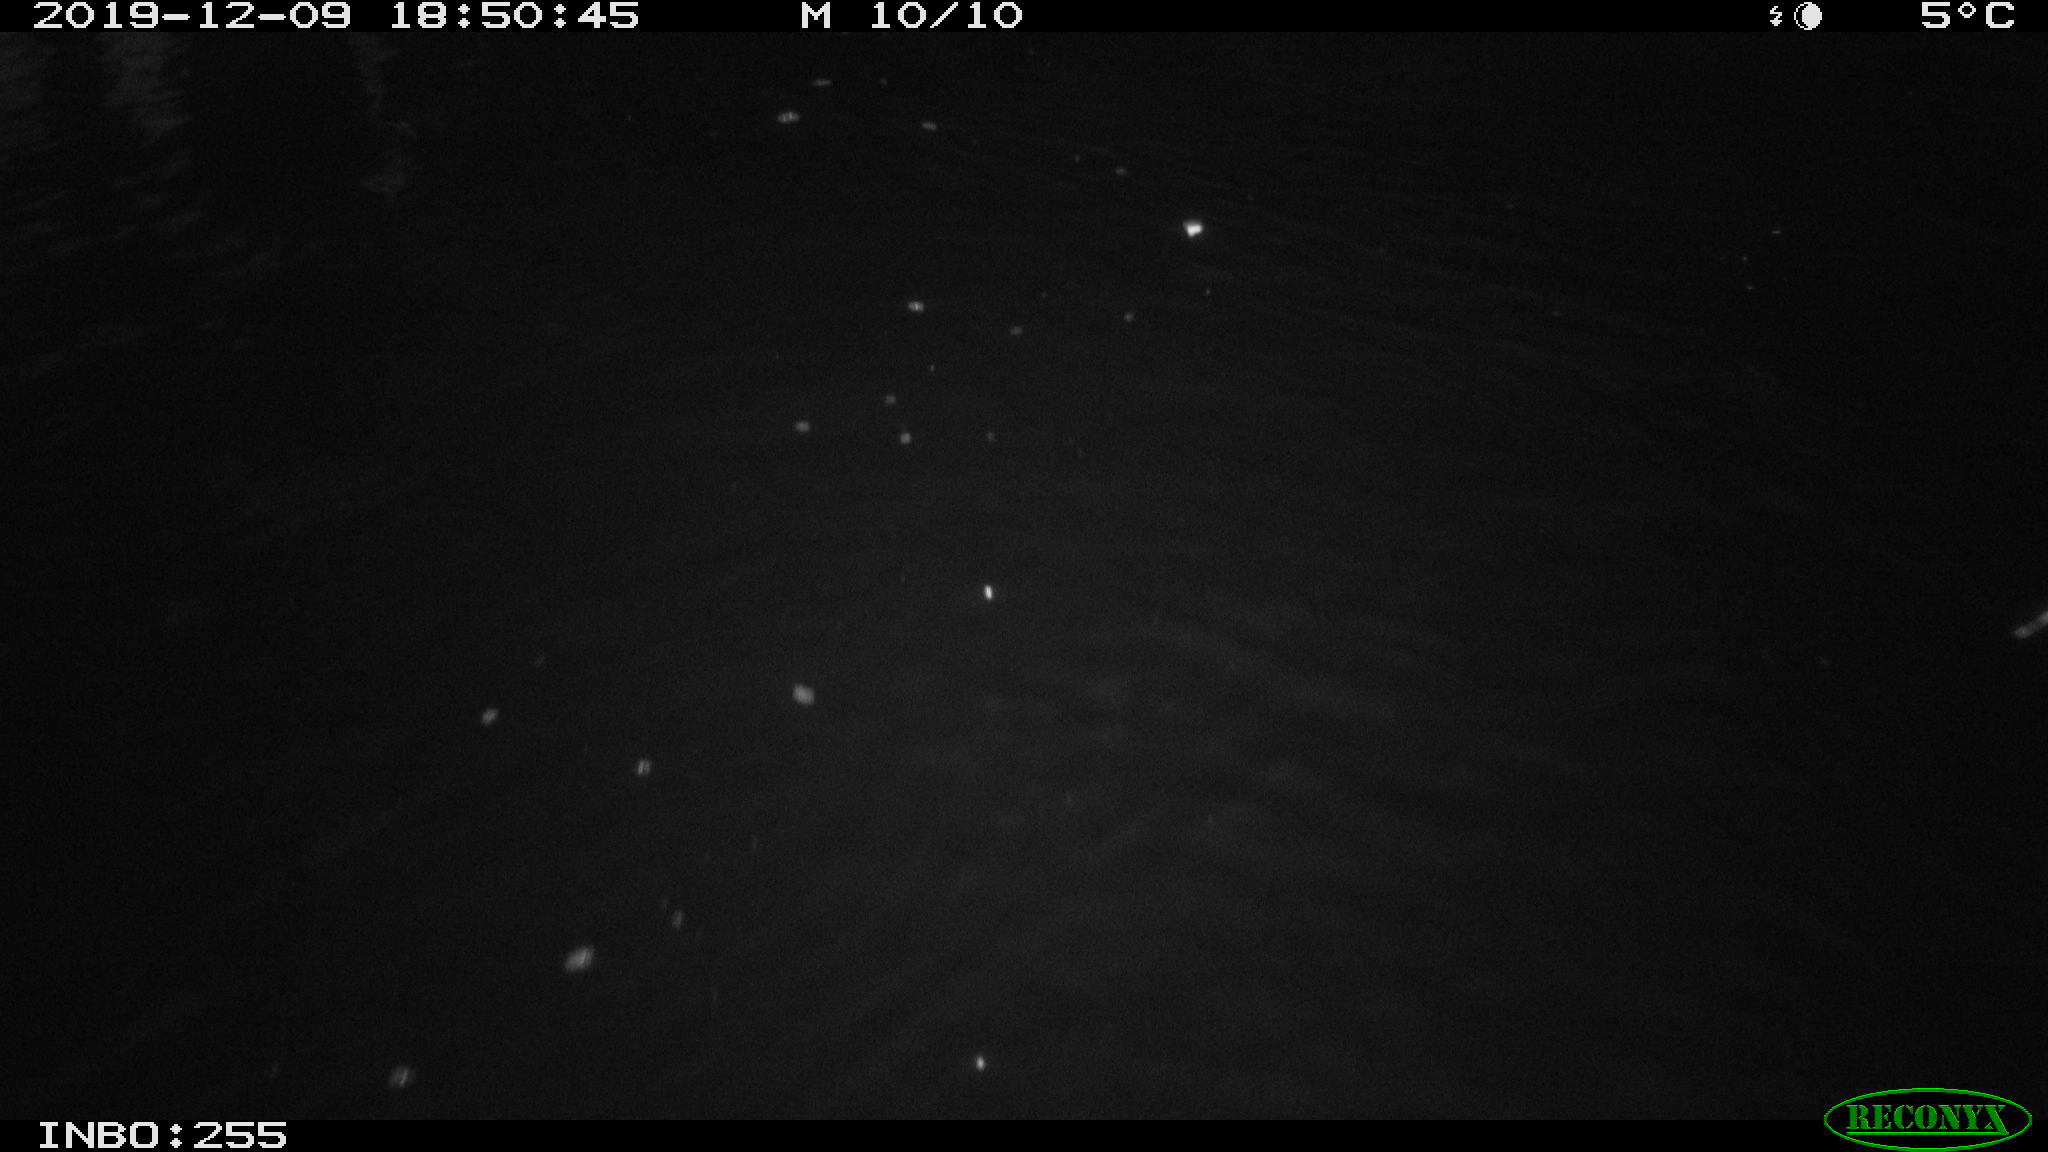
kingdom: Animalia
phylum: Chordata
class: Mammalia
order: Rodentia
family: Muridae
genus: Rattus
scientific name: Rattus norvegicus
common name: Brown rat
